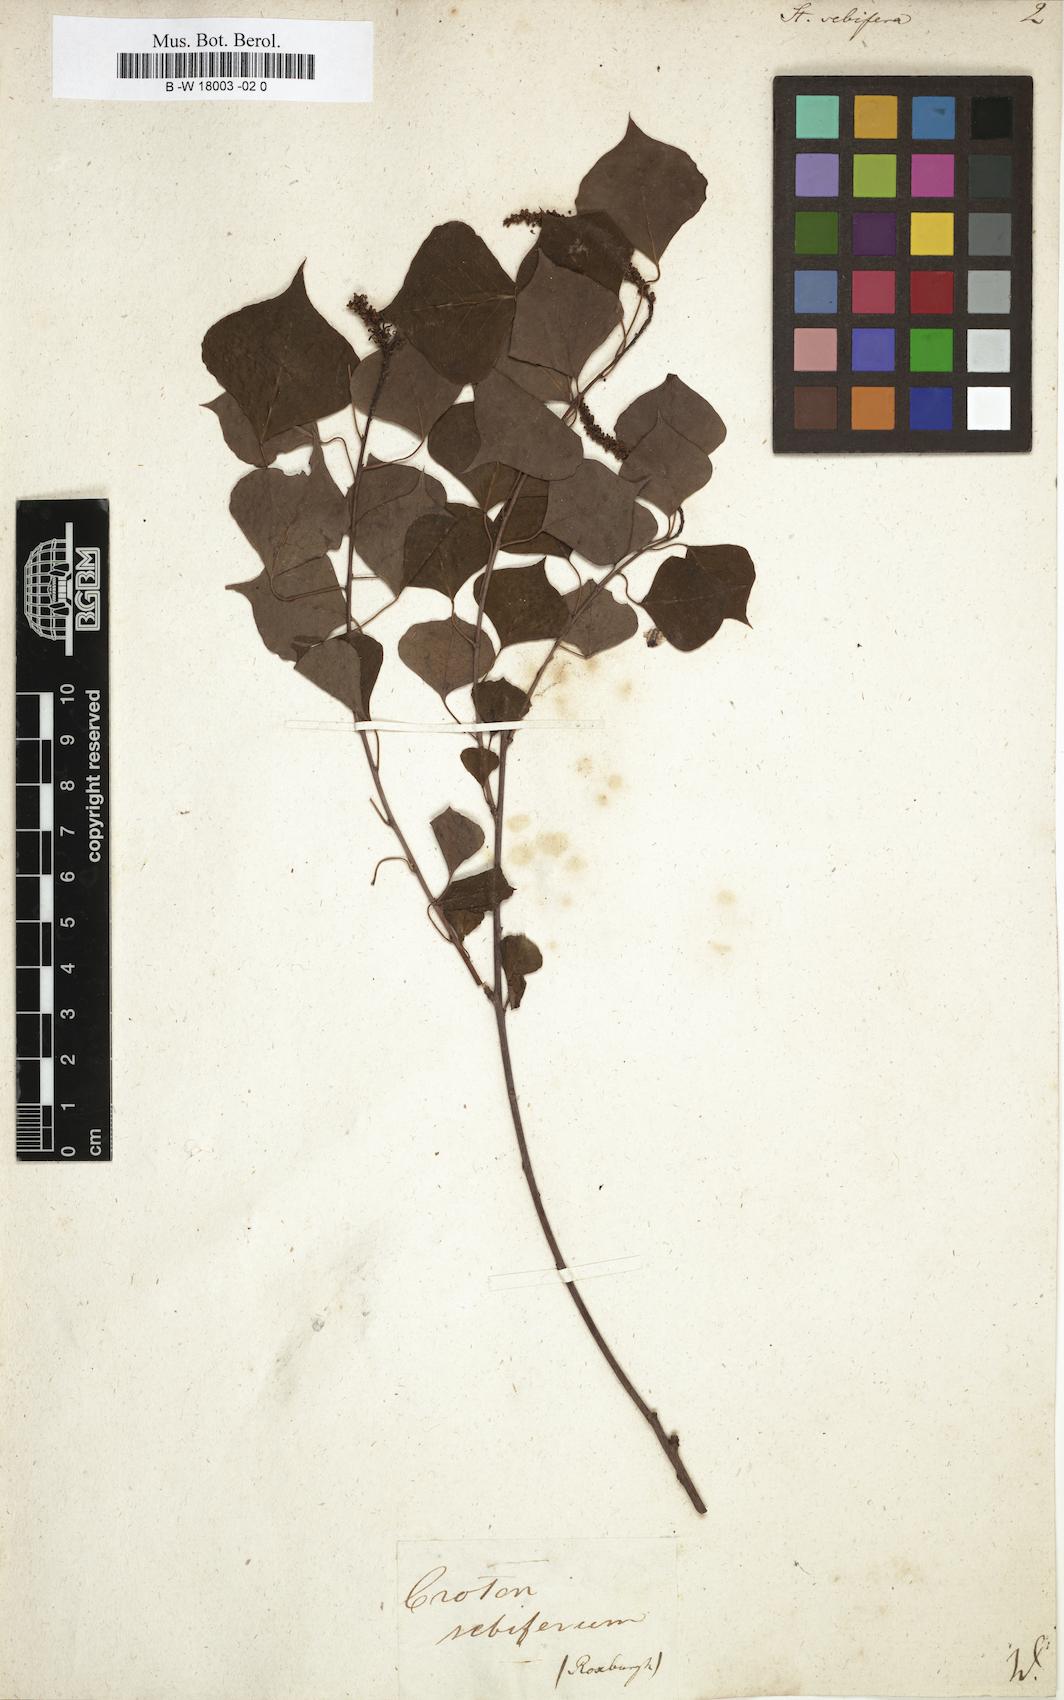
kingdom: Plantae
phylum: Tracheophyta
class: Magnoliopsida
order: Malpighiales
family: Euphorbiaceae
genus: Triadica
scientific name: Triadica sebifera
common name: Chinese tallow
